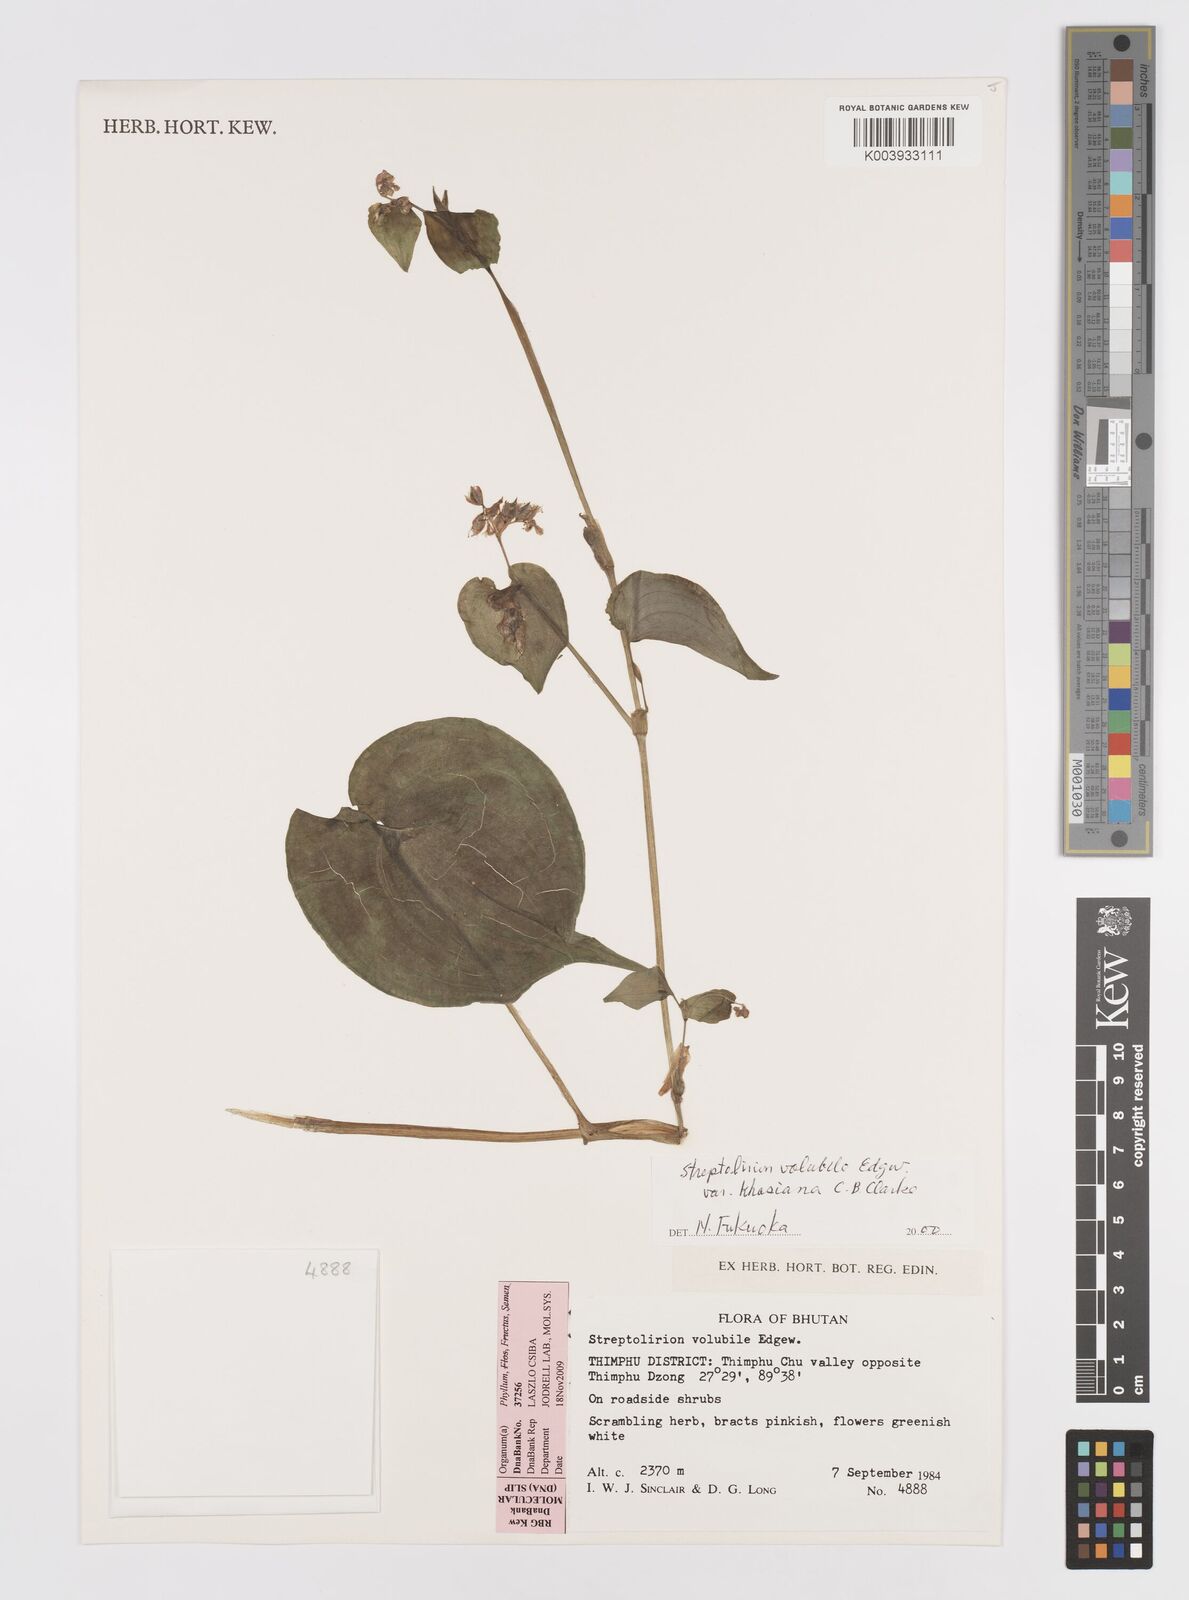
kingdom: Plantae
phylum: Tracheophyta
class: Liliopsida
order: Commelinales
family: Commelinaceae
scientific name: Commelinaceae
